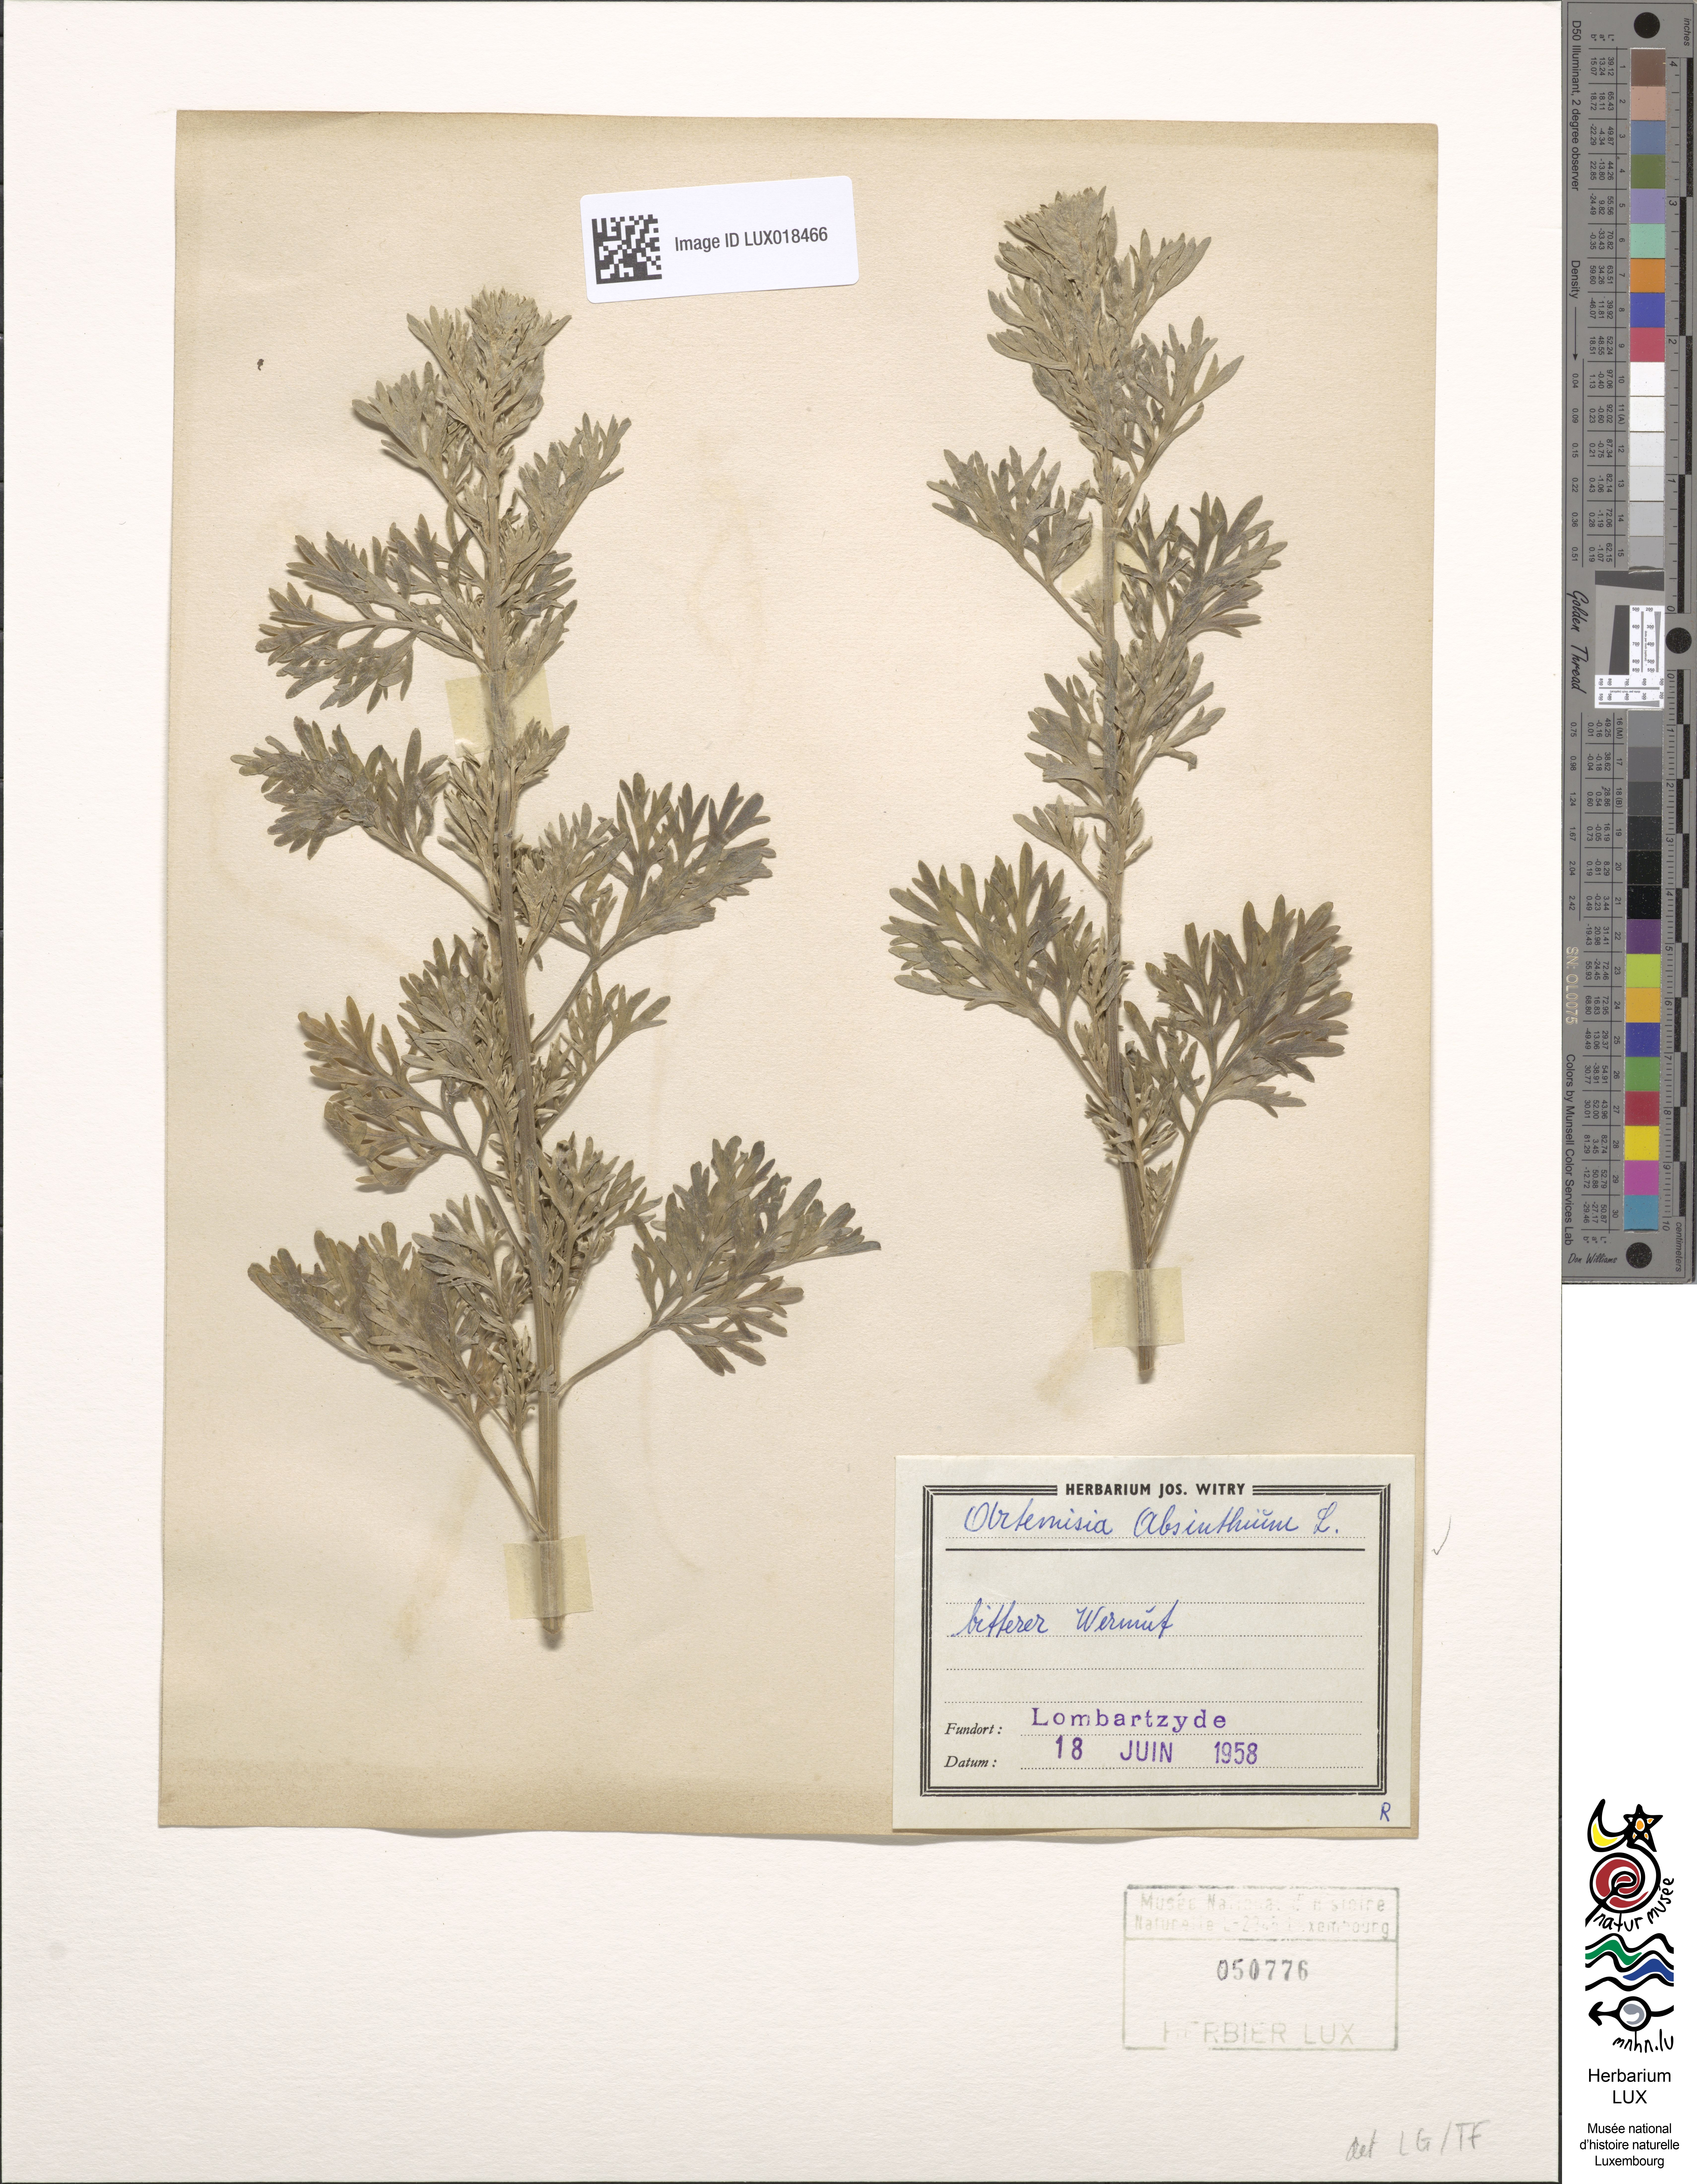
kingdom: Plantae
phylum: Tracheophyta
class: Magnoliopsida
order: Asterales
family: Asteraceae
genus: Artemisia
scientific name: Artemisia absinthium
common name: Wormwood
